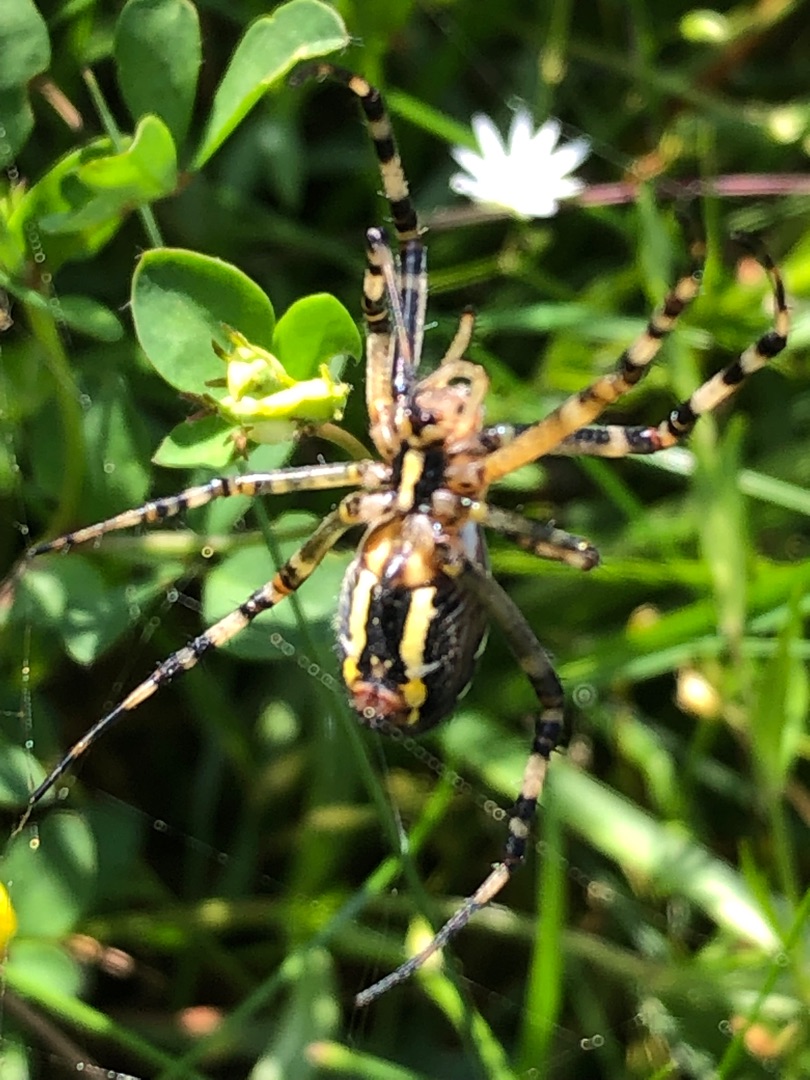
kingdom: Animalia
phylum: Arthropoda
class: Arachnida
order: Araneae
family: Araneidae
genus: Argiope
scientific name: Argiope bruennichi
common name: Hvepseedderkop
